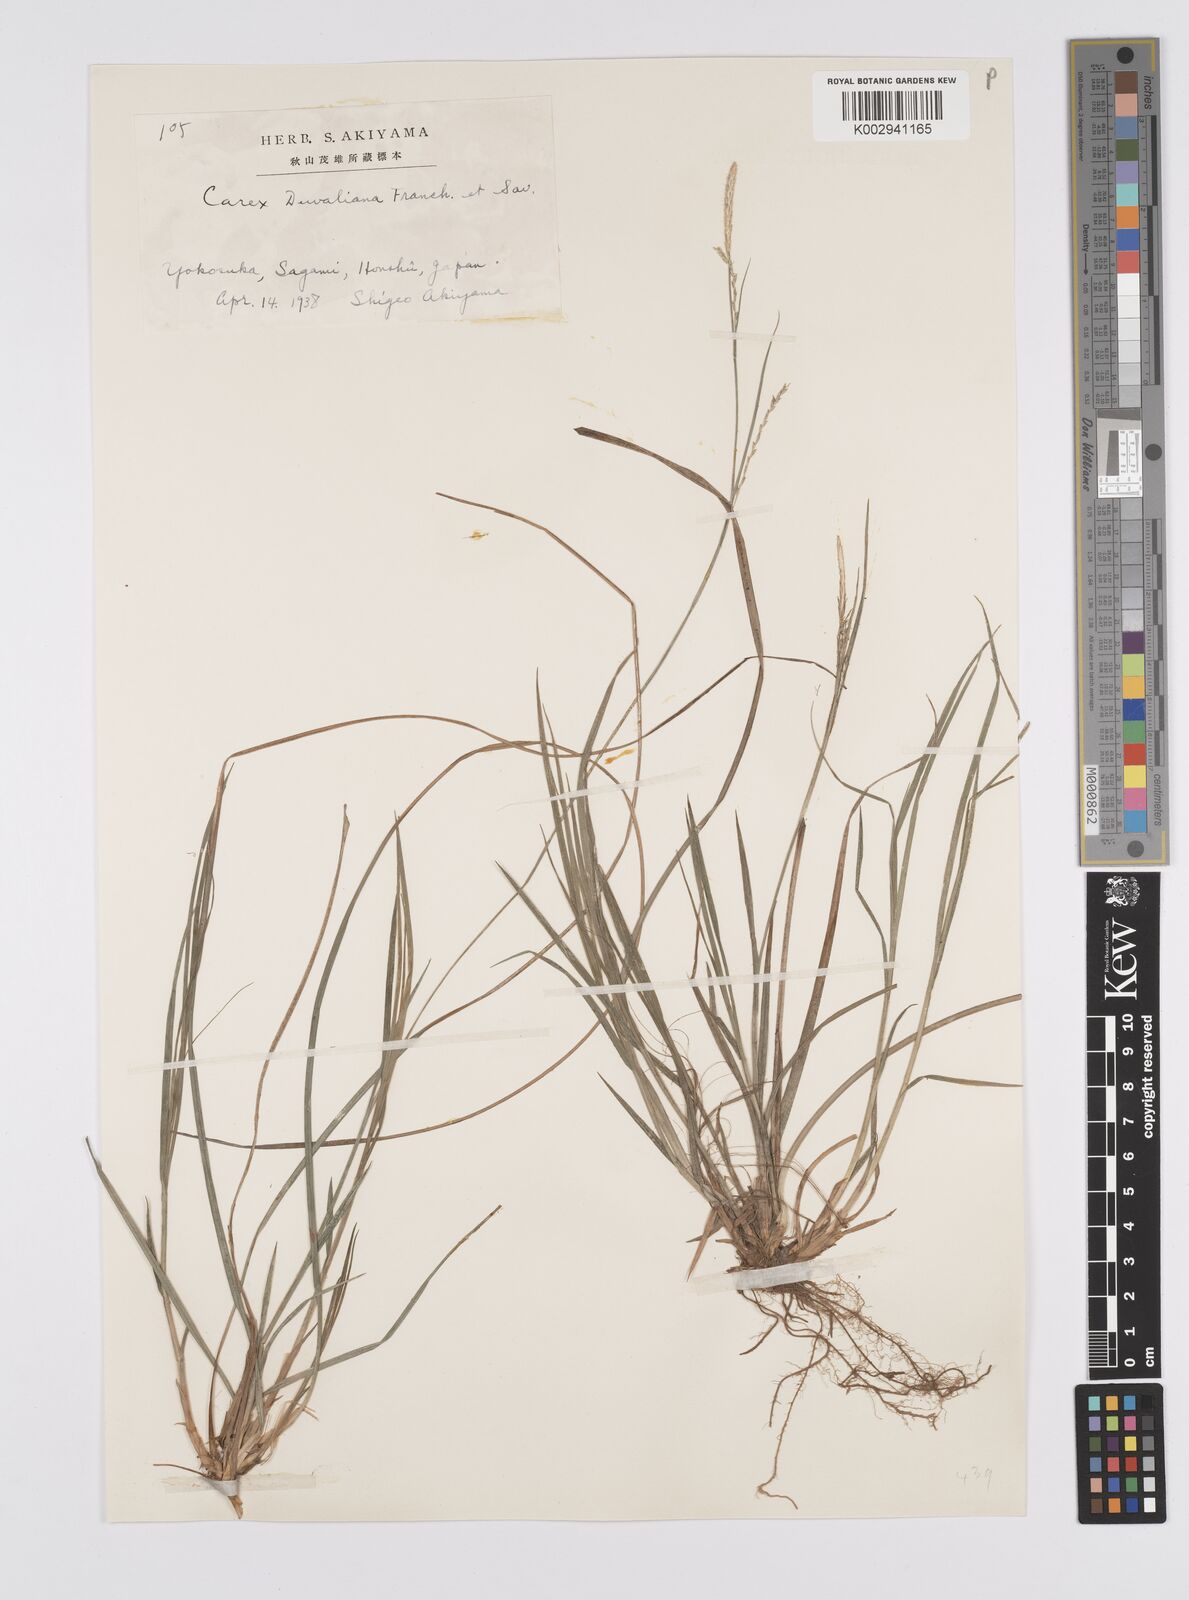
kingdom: Plantae
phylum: Tracheophyta
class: Liliopsida
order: Poales
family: Cyperaceae
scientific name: Cyperaceae
